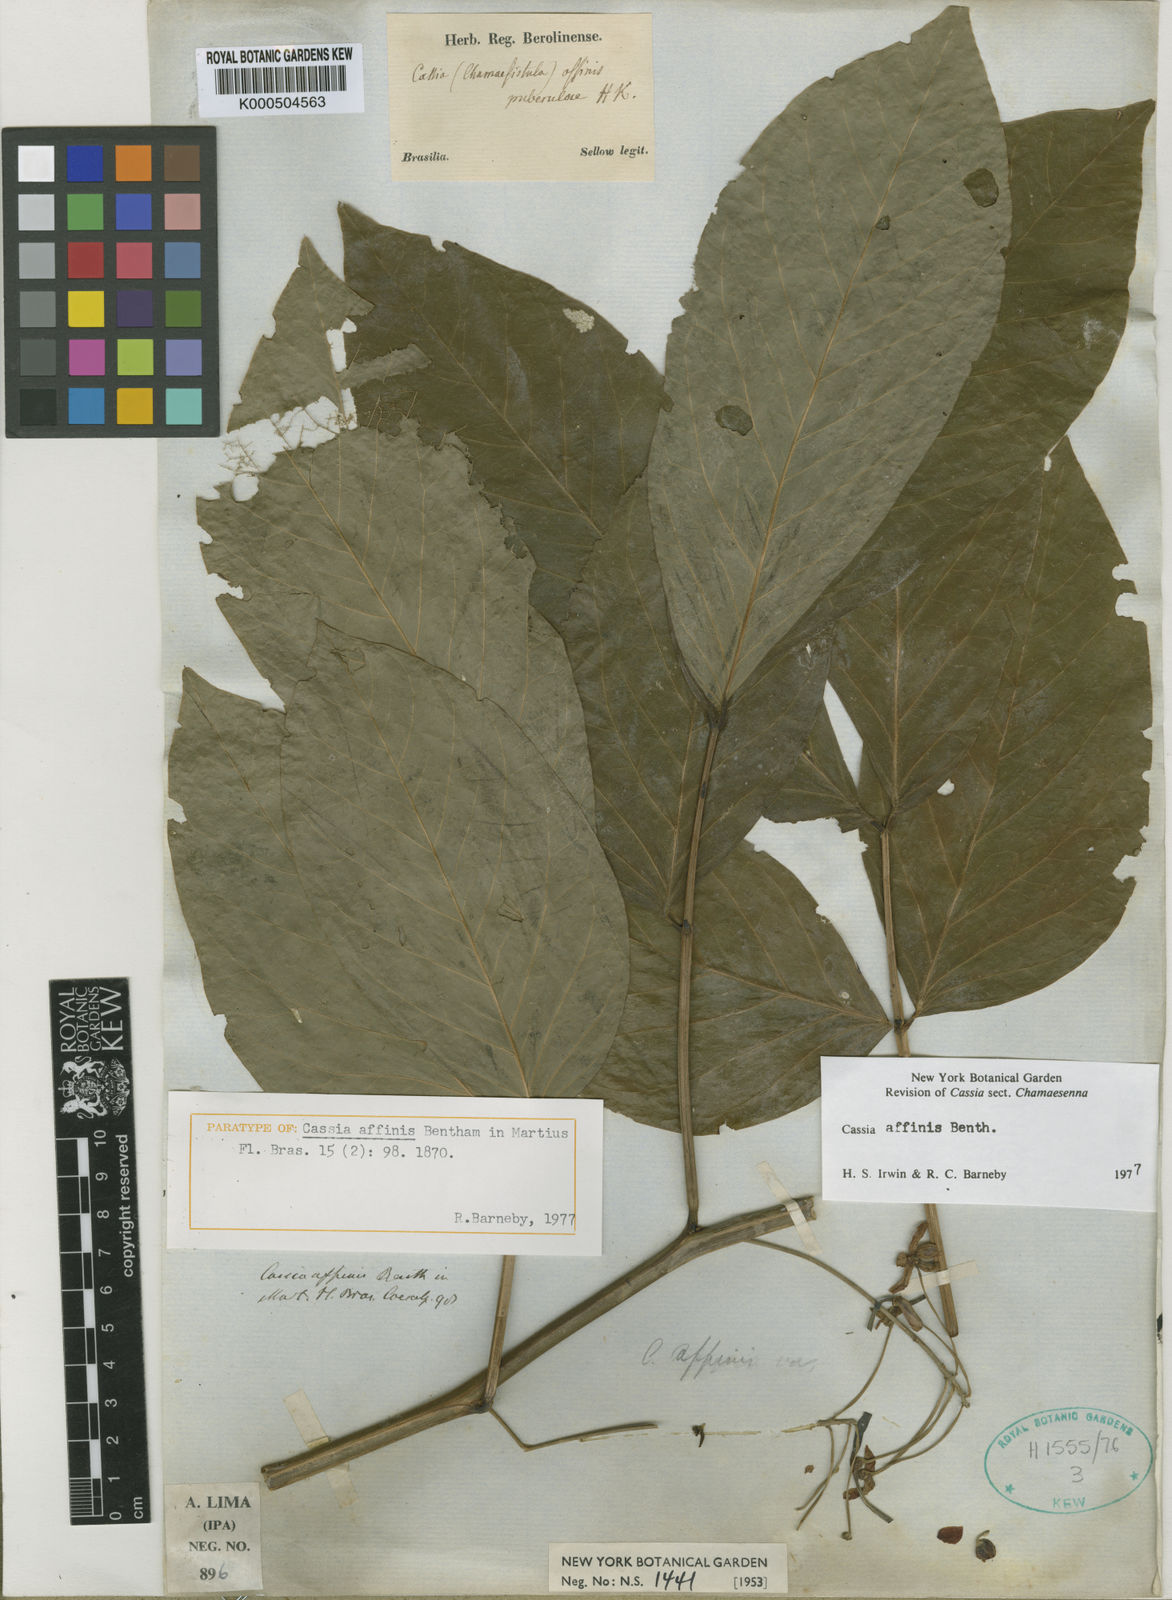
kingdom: Plantae
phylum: Tracheophyta
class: Magnoliopsida
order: Fabales
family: Fabaceae
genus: Senna
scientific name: Senna affinis
